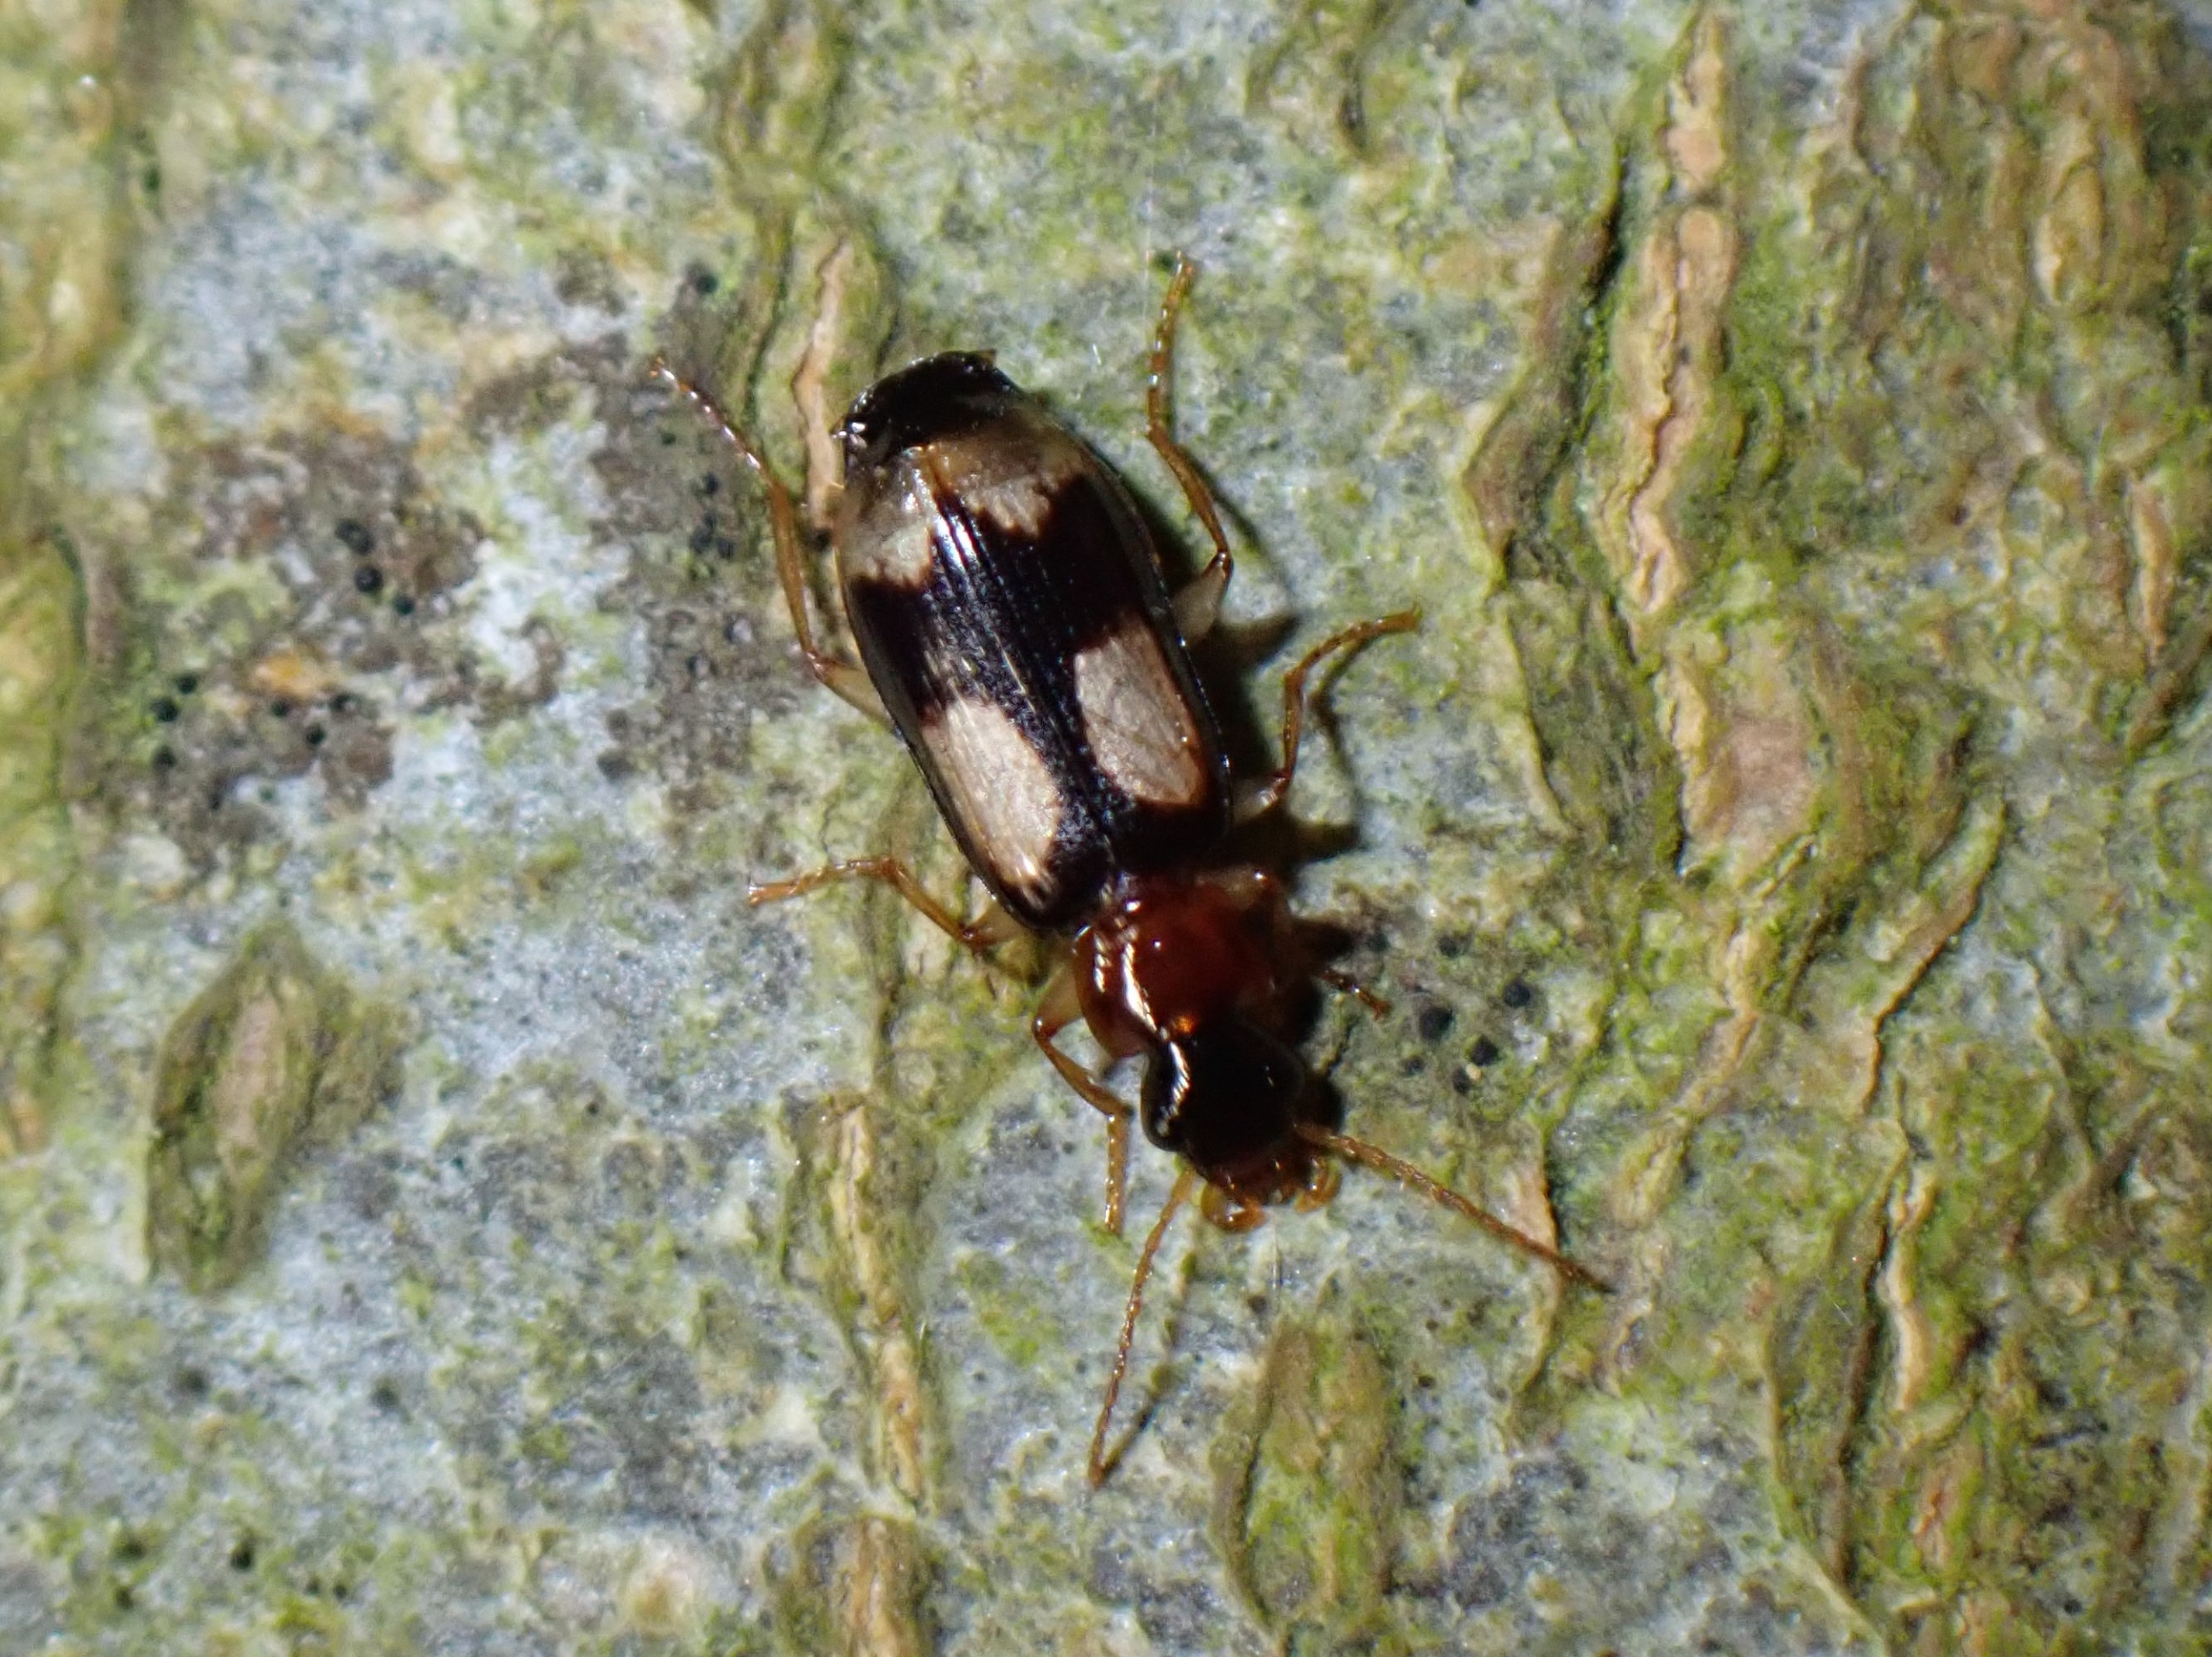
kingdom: Animalia
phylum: Arthropoda
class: Insecta
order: Coleoptera
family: Carabidae
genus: Dromius
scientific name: Dromius quadrimaculatus
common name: Fireplettet barkløber
